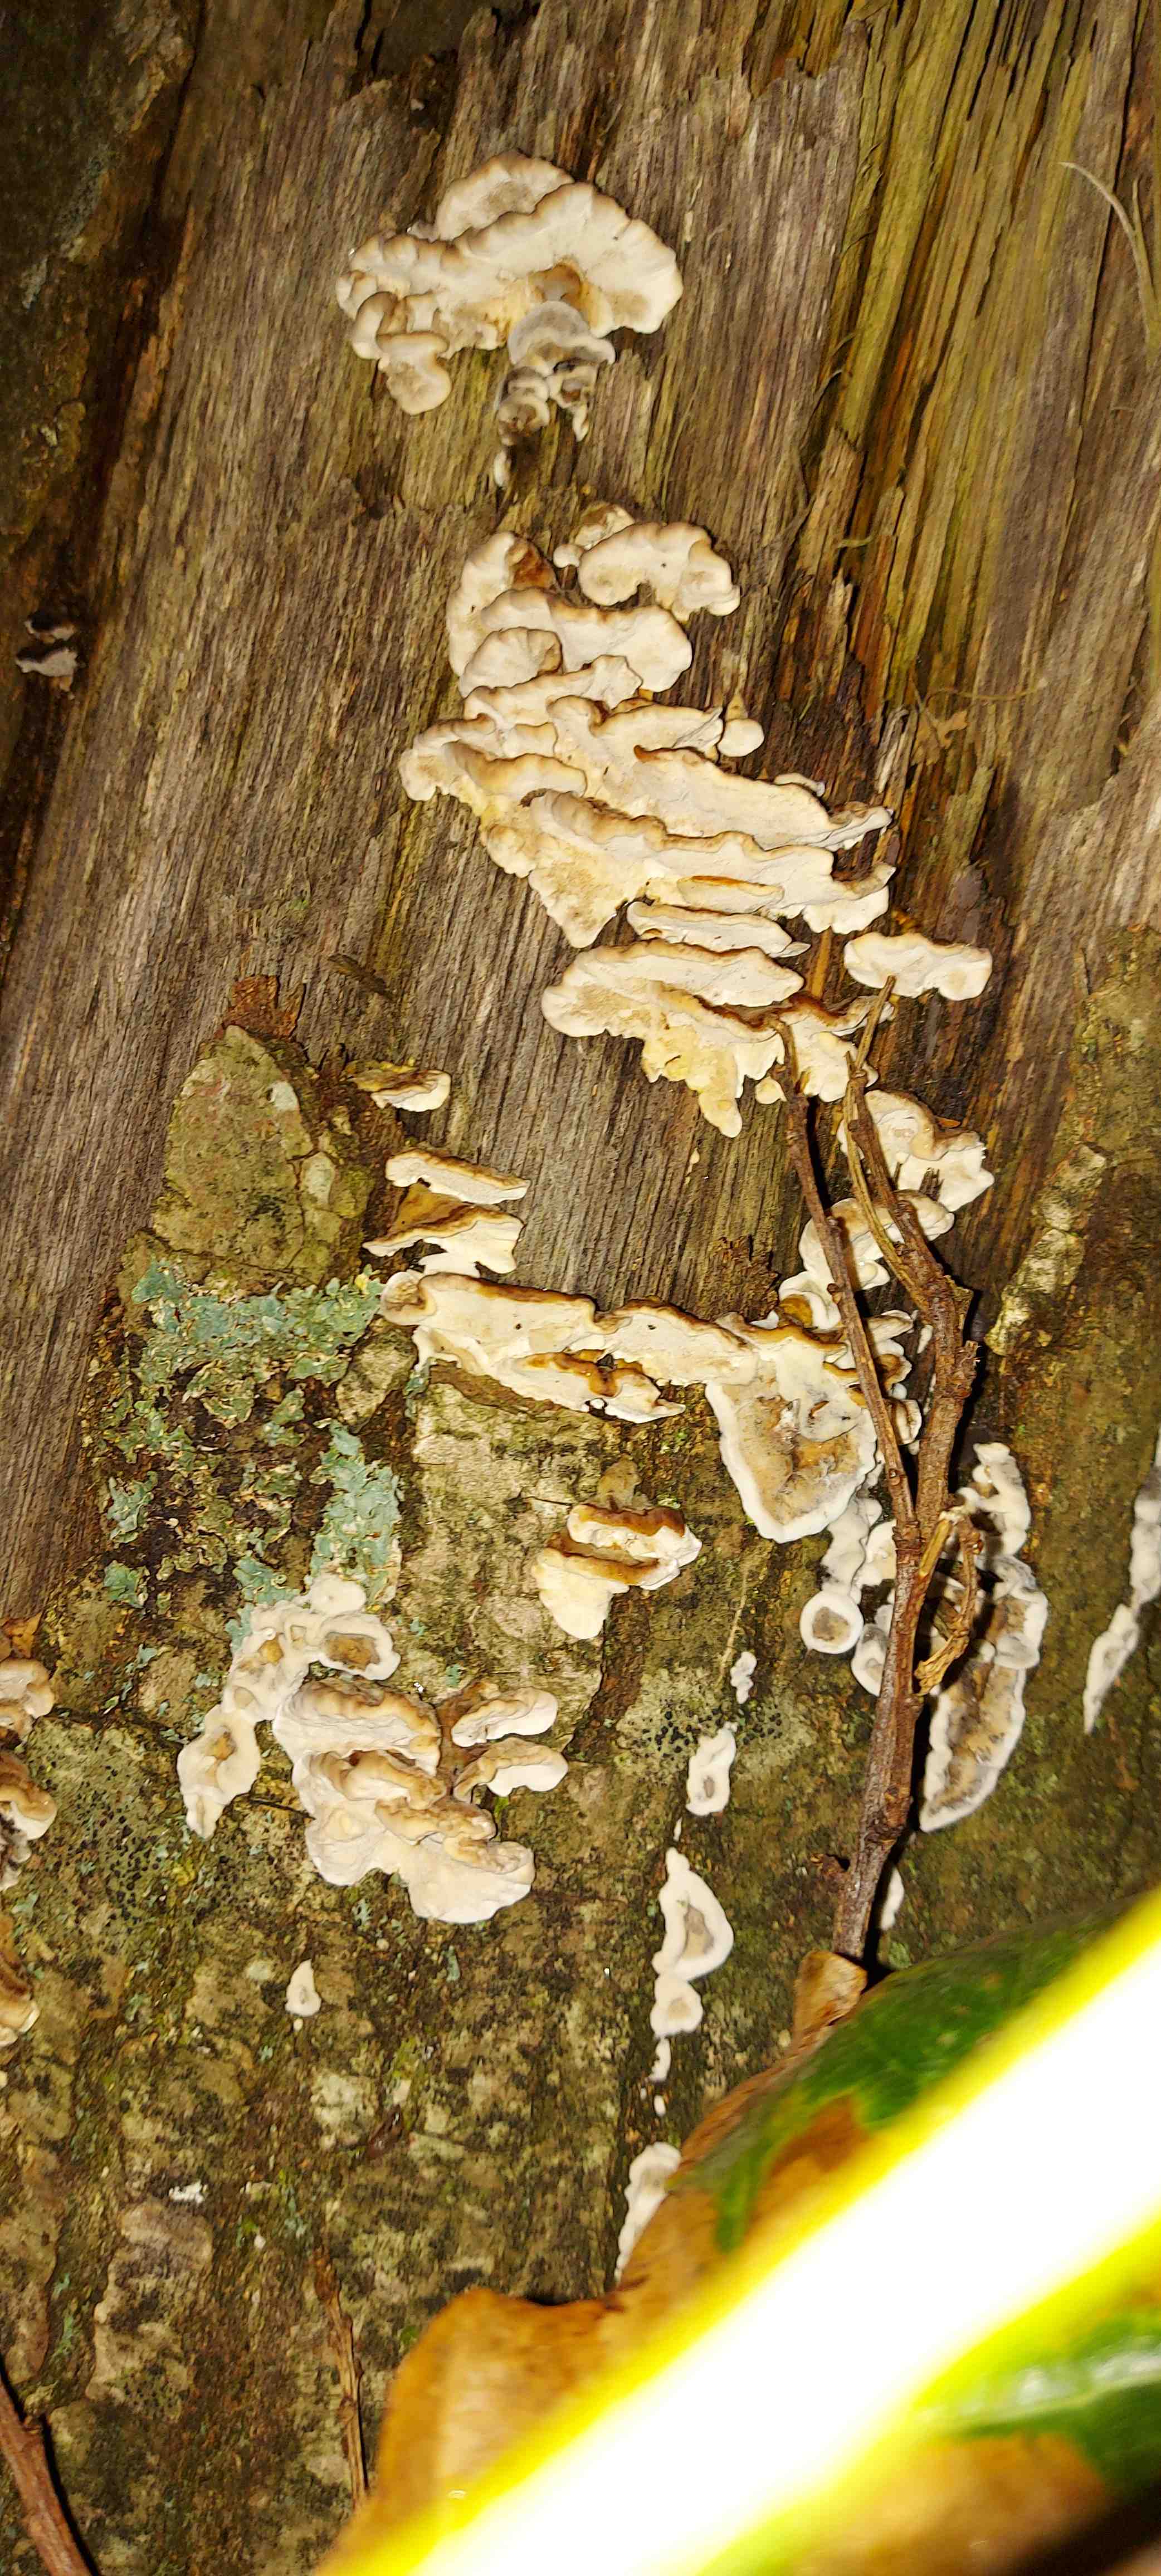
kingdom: Fungi
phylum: Basidiomycota
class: Agaricomycetes
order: Polyporales
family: Polyporaceae
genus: Trametes
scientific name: Trametes versicolor
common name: broget læderporesvamp
